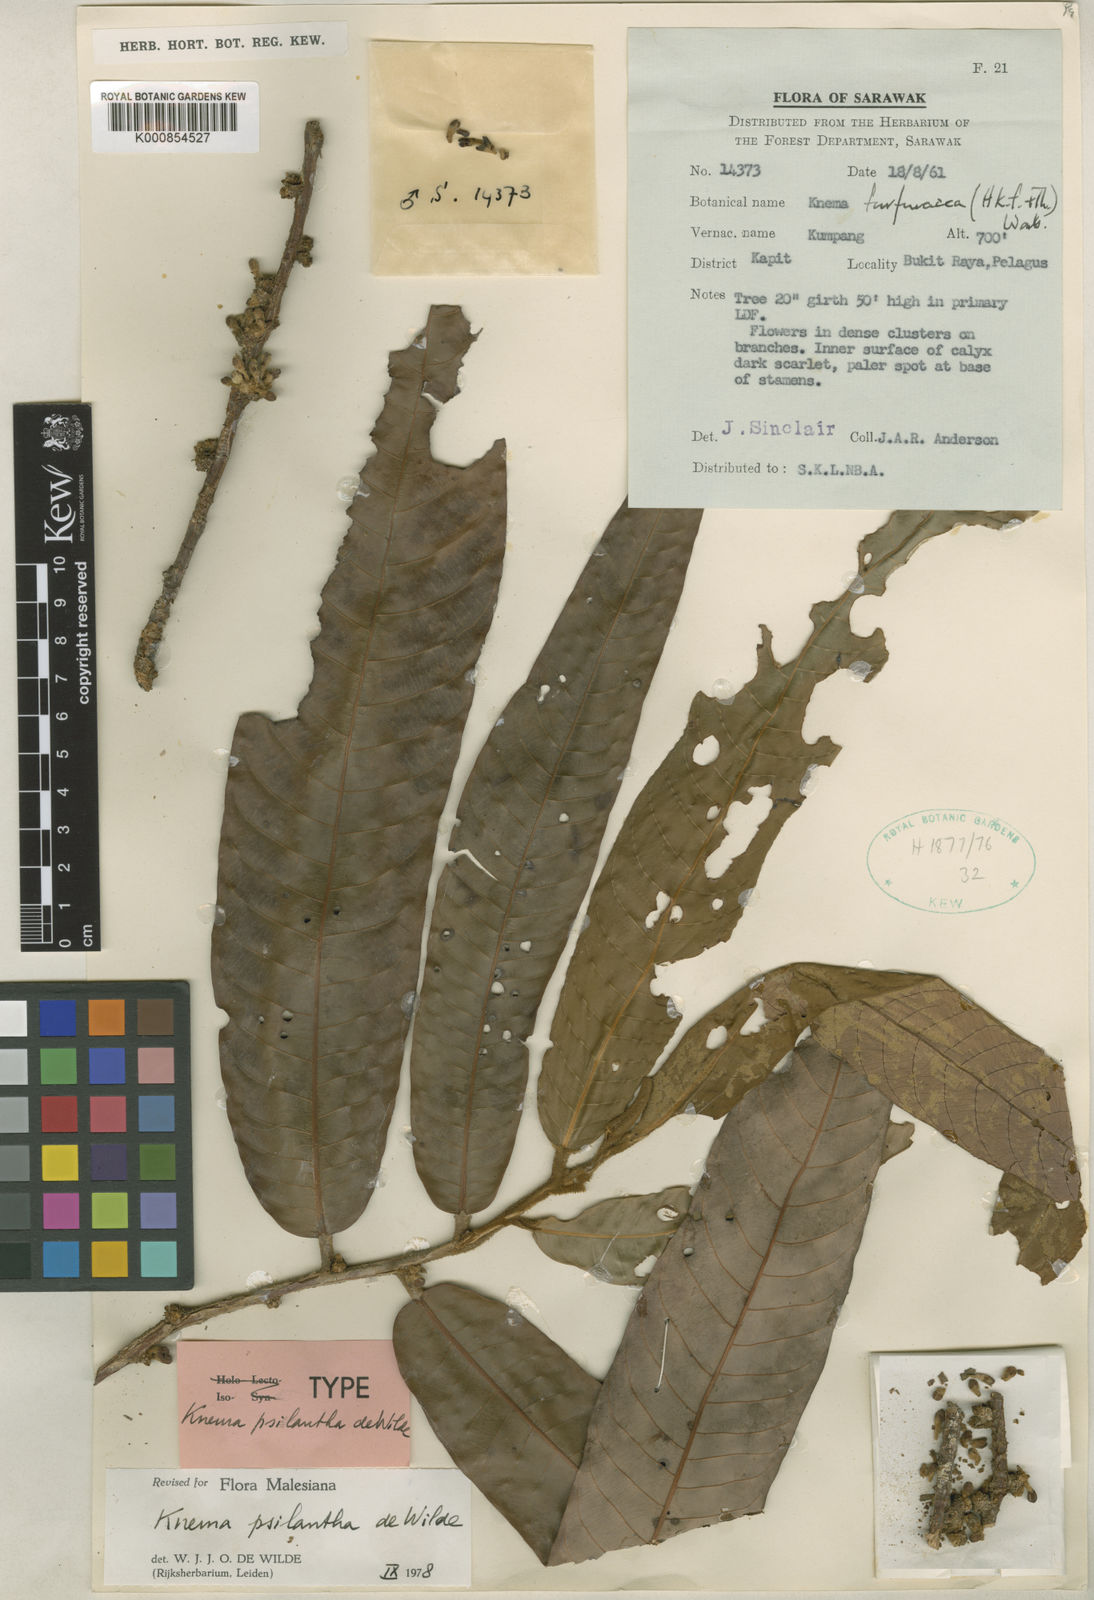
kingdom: Plantae
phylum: Tracheophyta
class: Magnoliopsida
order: Magnoliales
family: Myristicaceae
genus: Knema
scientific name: Knema psilantha
